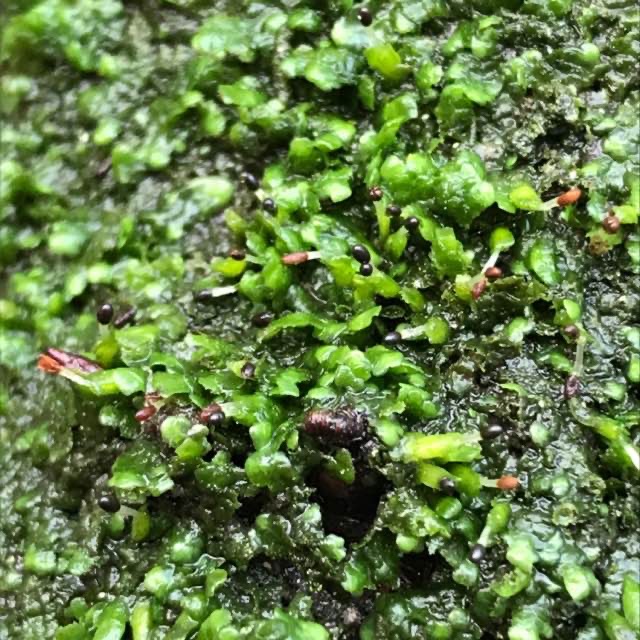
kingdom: Plantae
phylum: Marchantiophyta
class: Jungermanniopsida
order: Porellales
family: Radulaceae
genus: Radula
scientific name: Radula complanata
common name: Almindelig spartelmos
